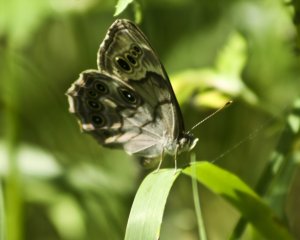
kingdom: Animalia
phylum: Arthropoda
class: Insecta
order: Lepidoptera
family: Nymphalidae
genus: Lethe
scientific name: Lethe anthedon
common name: Northern Pearly-Eye
